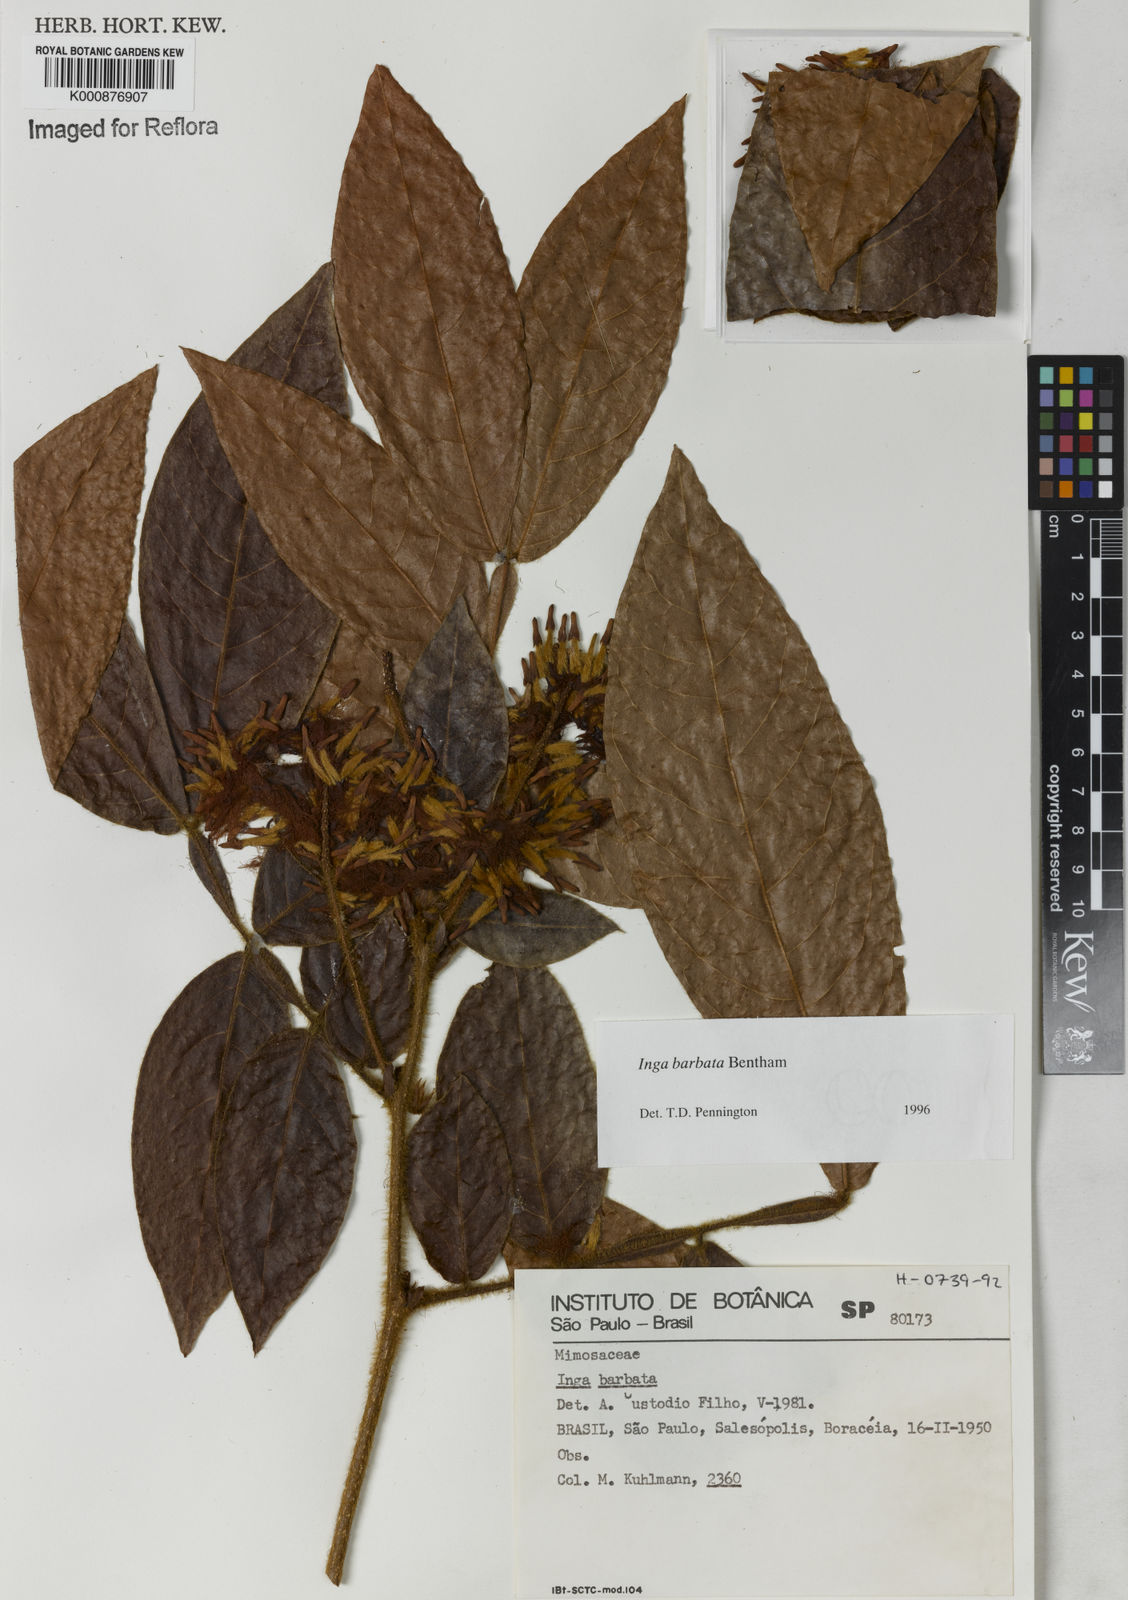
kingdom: Plantae
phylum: Tracheophyta
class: Magnoliopsida
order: Fabales
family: Fabaceae
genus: Inga
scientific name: Inga barbata
